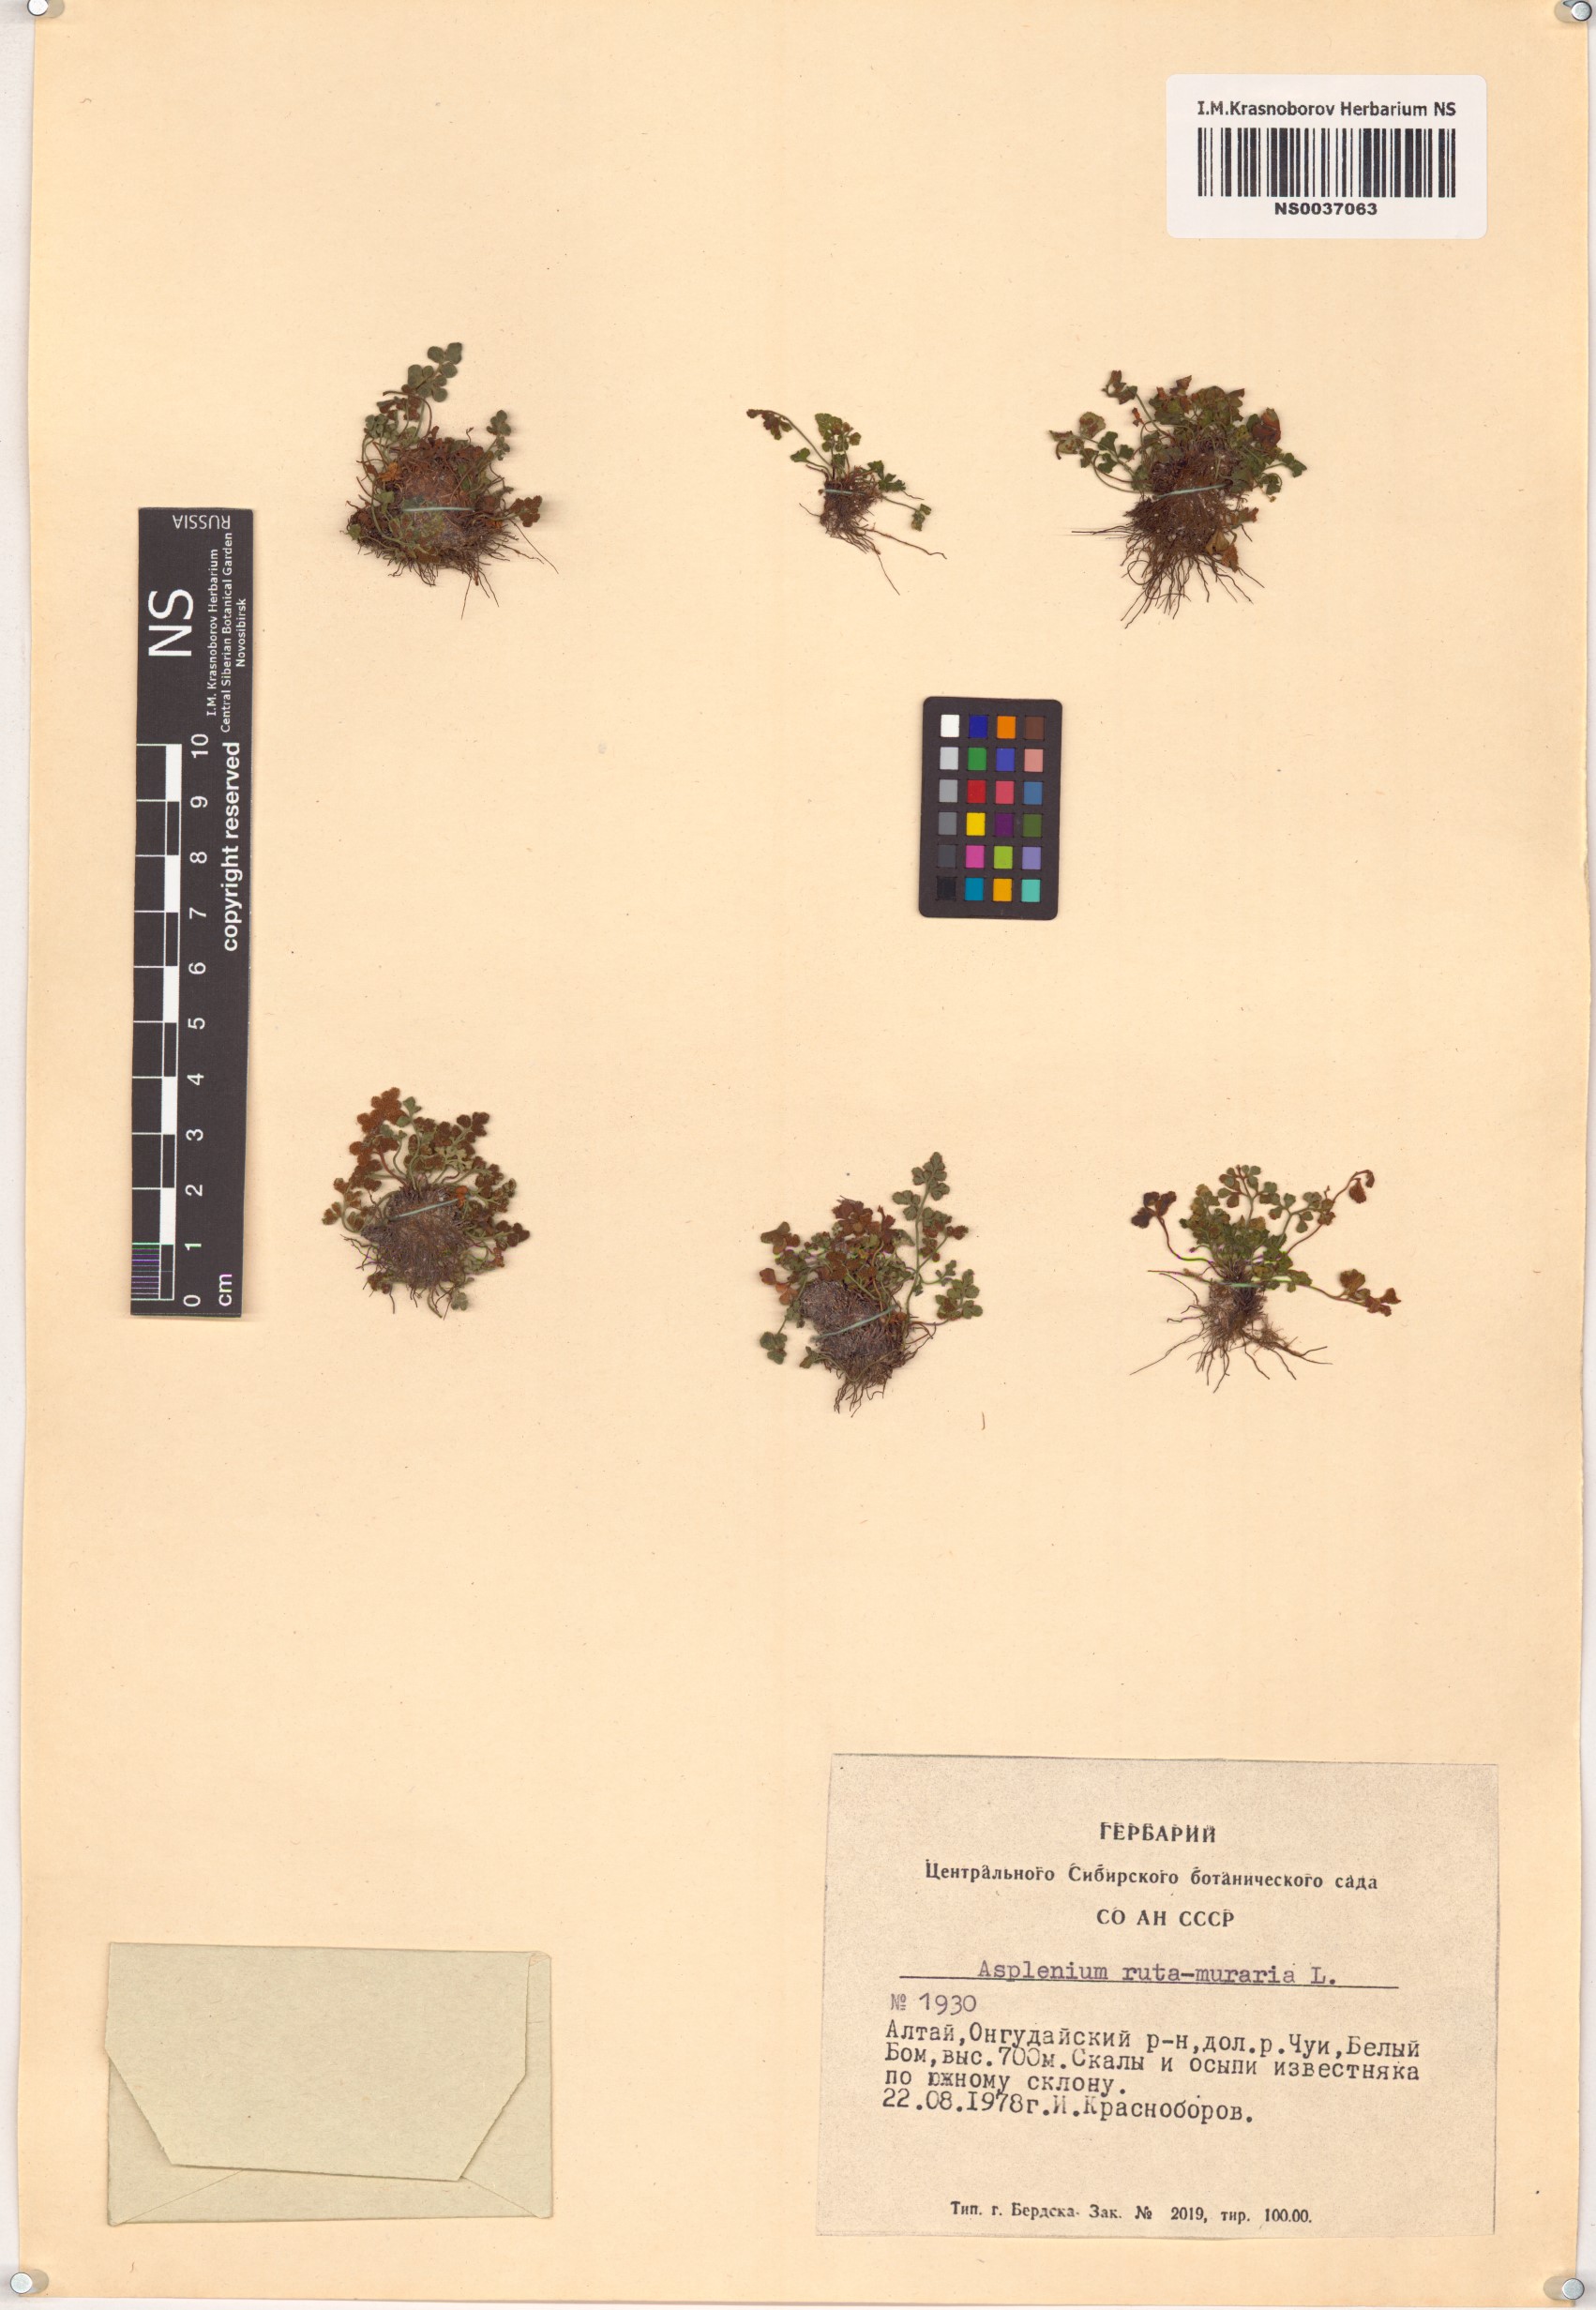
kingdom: Plantae
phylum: Tracheophyta
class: Polypodiopsida
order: Polypodiales
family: Aspleniaceae
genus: Asplenium
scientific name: Asplenium ruta-muraria
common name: Wall-rue
